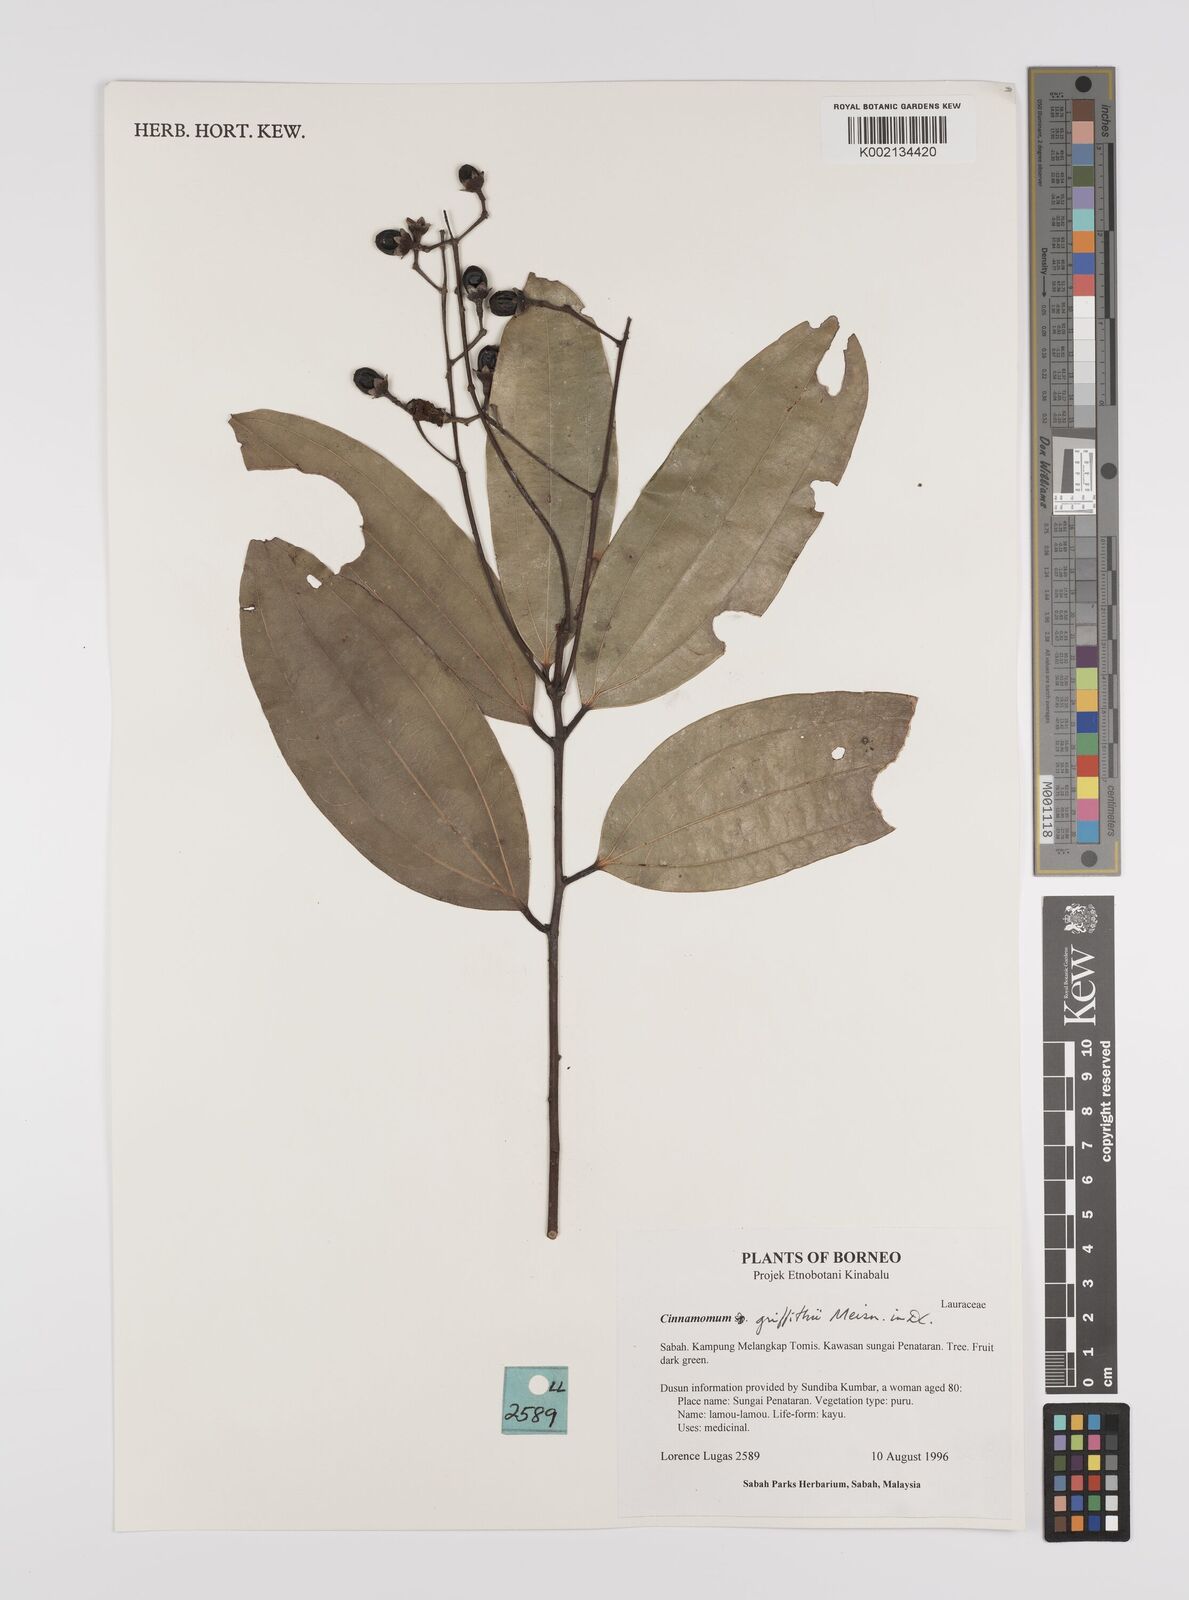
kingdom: Plantae
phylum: Tracheophyta
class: Magnoliopsida
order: Laurales
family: Lauraceae
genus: Cinnamomum
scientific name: Cinnamomum iners
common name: Wild cinnamon
